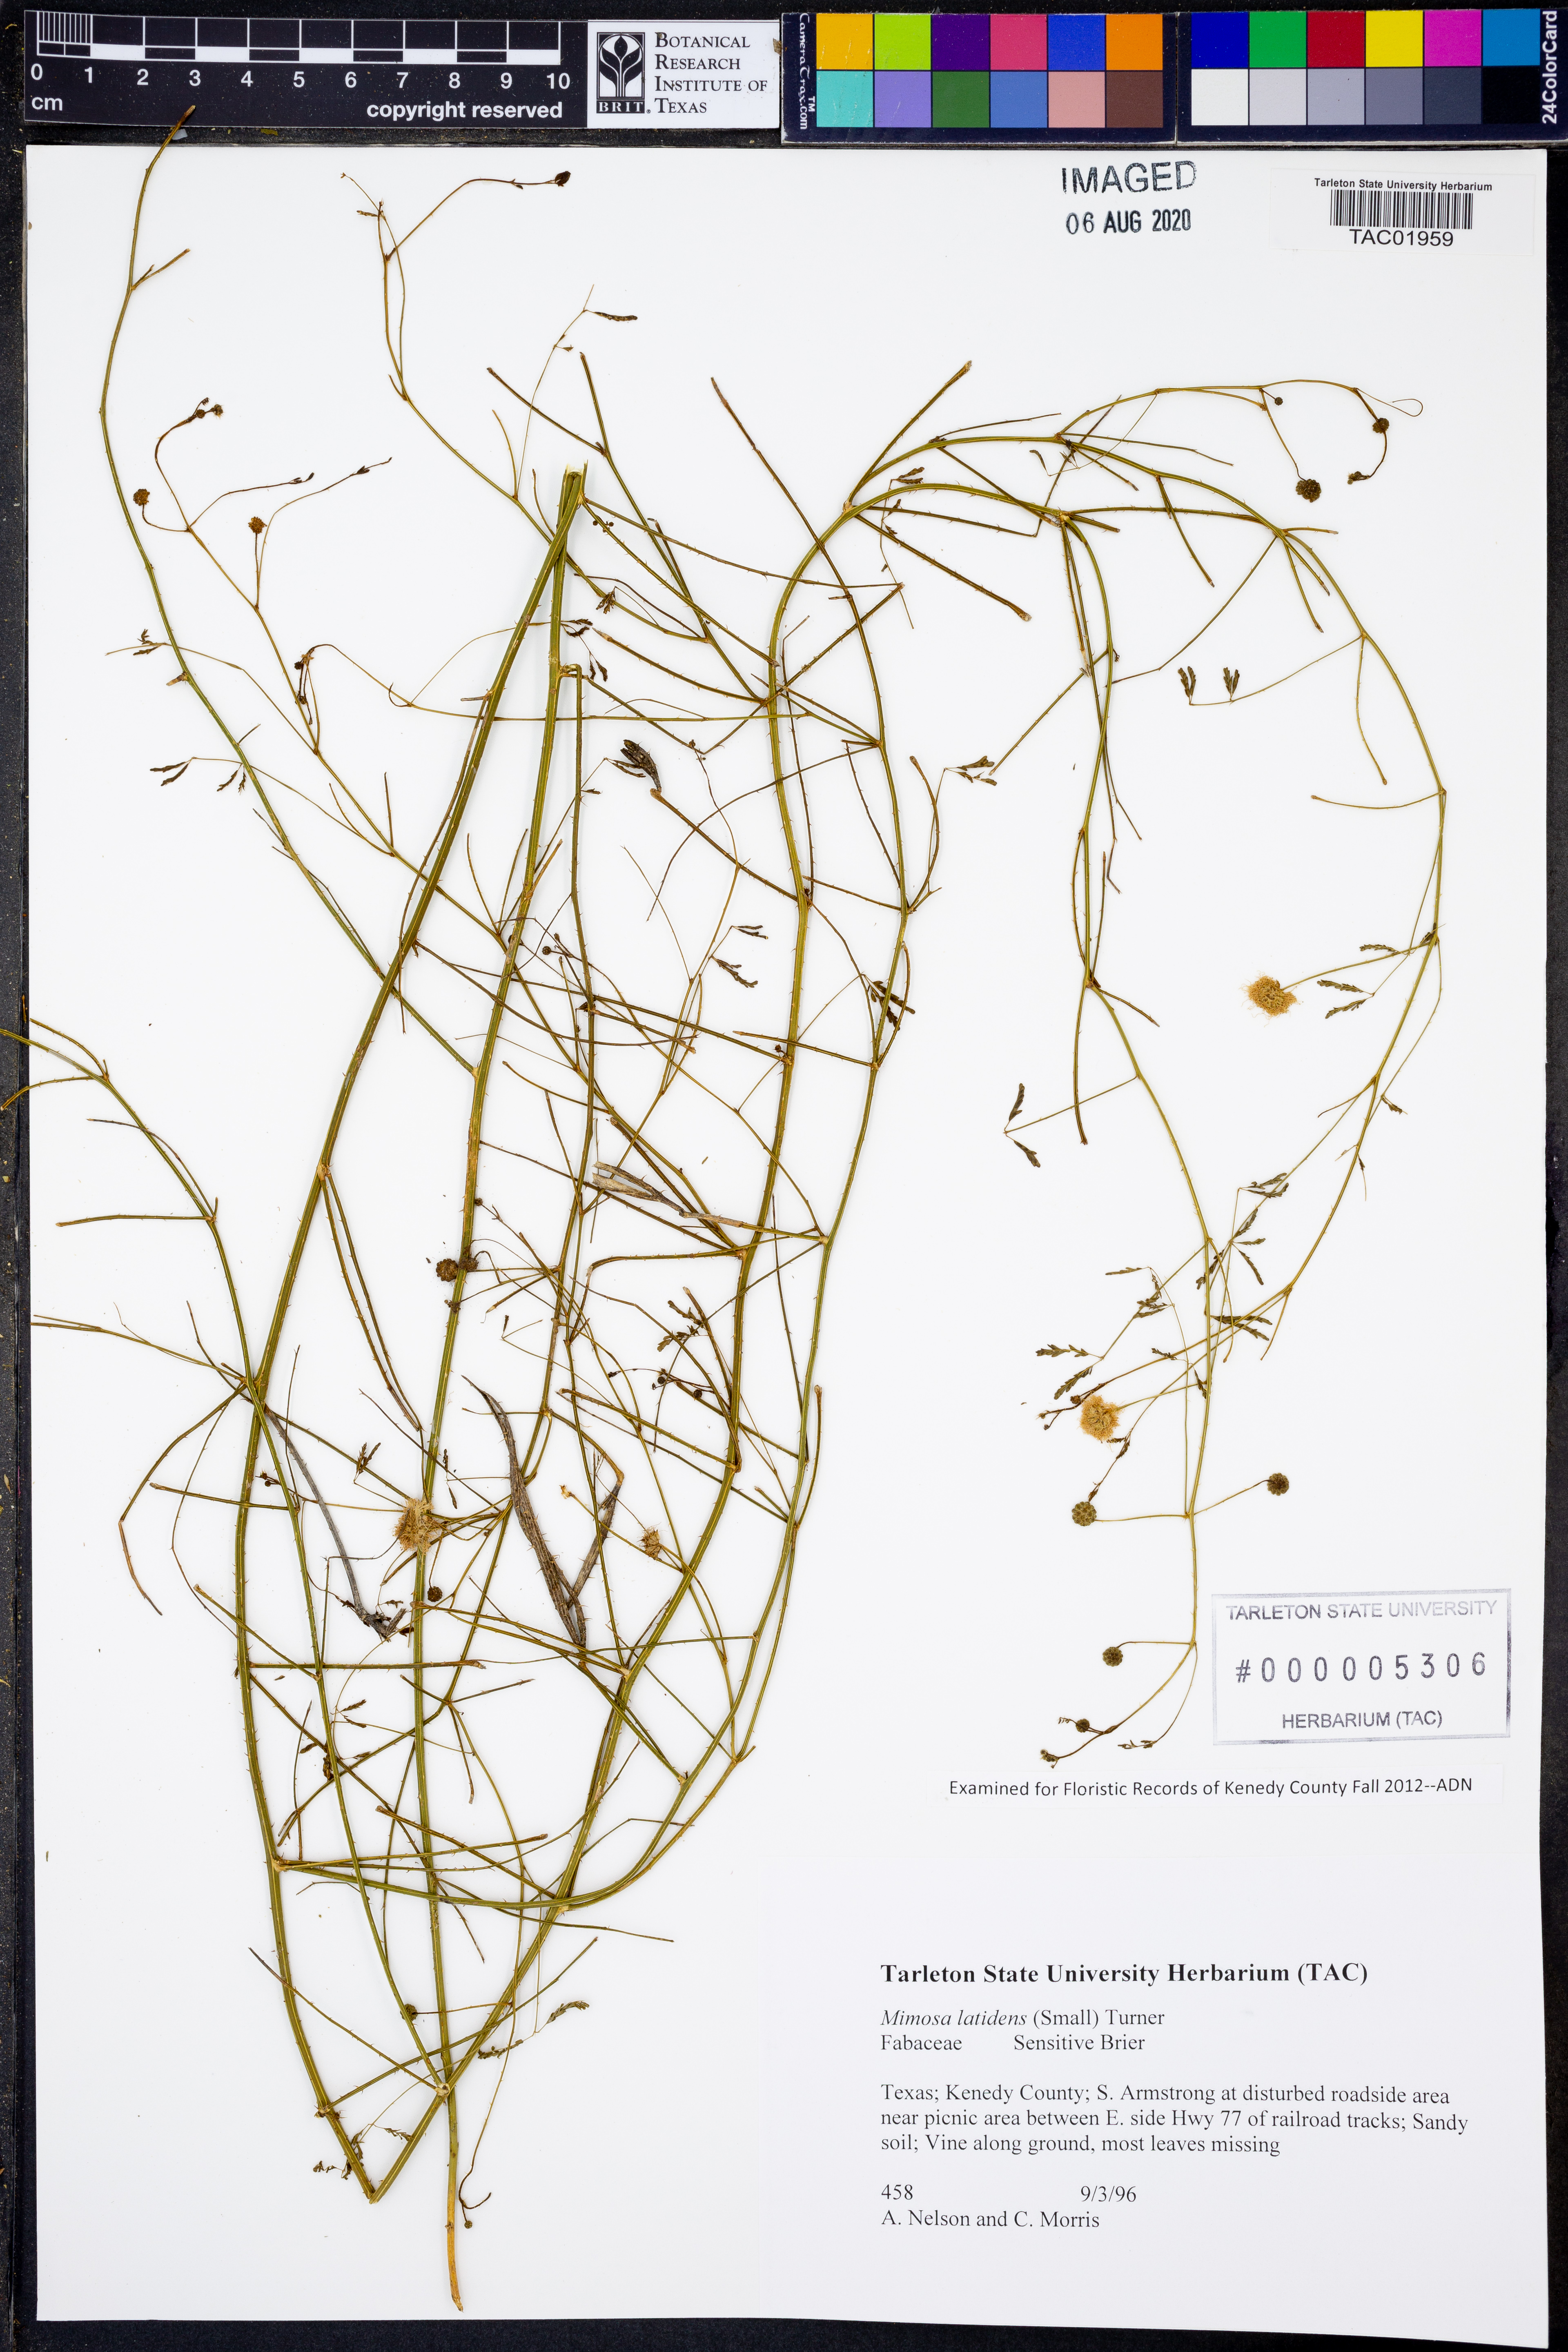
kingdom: Plantae
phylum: Tracheophyta
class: Magnoliopsida
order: Fabales
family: Fabaceae
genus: Mimosa
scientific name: Mimosa latidens
